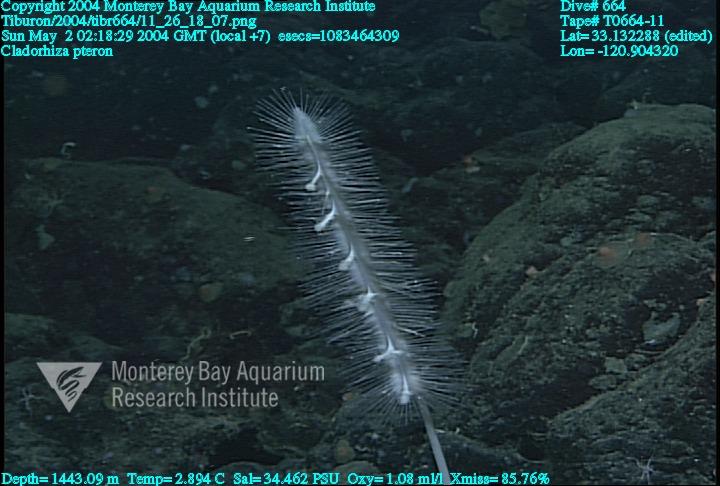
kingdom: Animalia
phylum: Porifera
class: Demospongiae
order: Poecilosclerida
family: Cladorhizidae
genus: Nullarbora
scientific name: Nullarbora pteron
